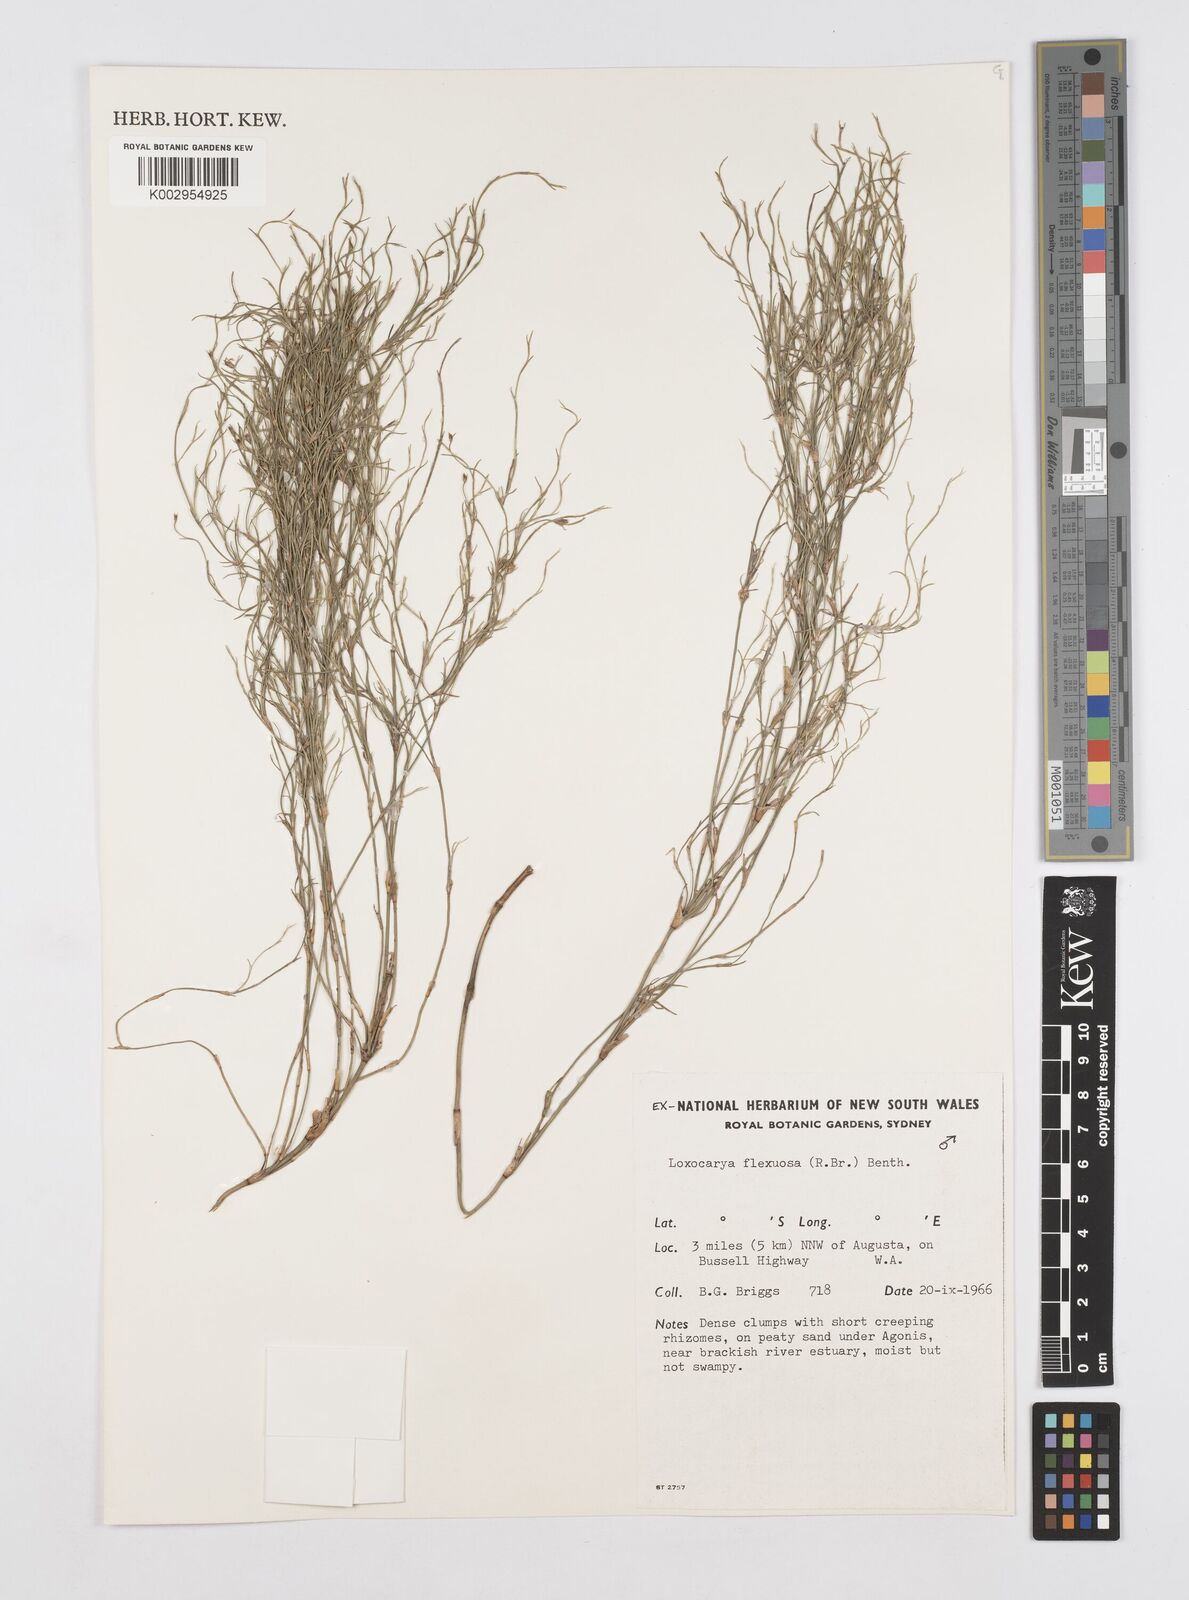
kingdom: Plantae
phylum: Tracheophyta
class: Liliopsida
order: Poales
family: Restionaceae
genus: Desmocladus
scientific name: Desmocladus flexuosus
